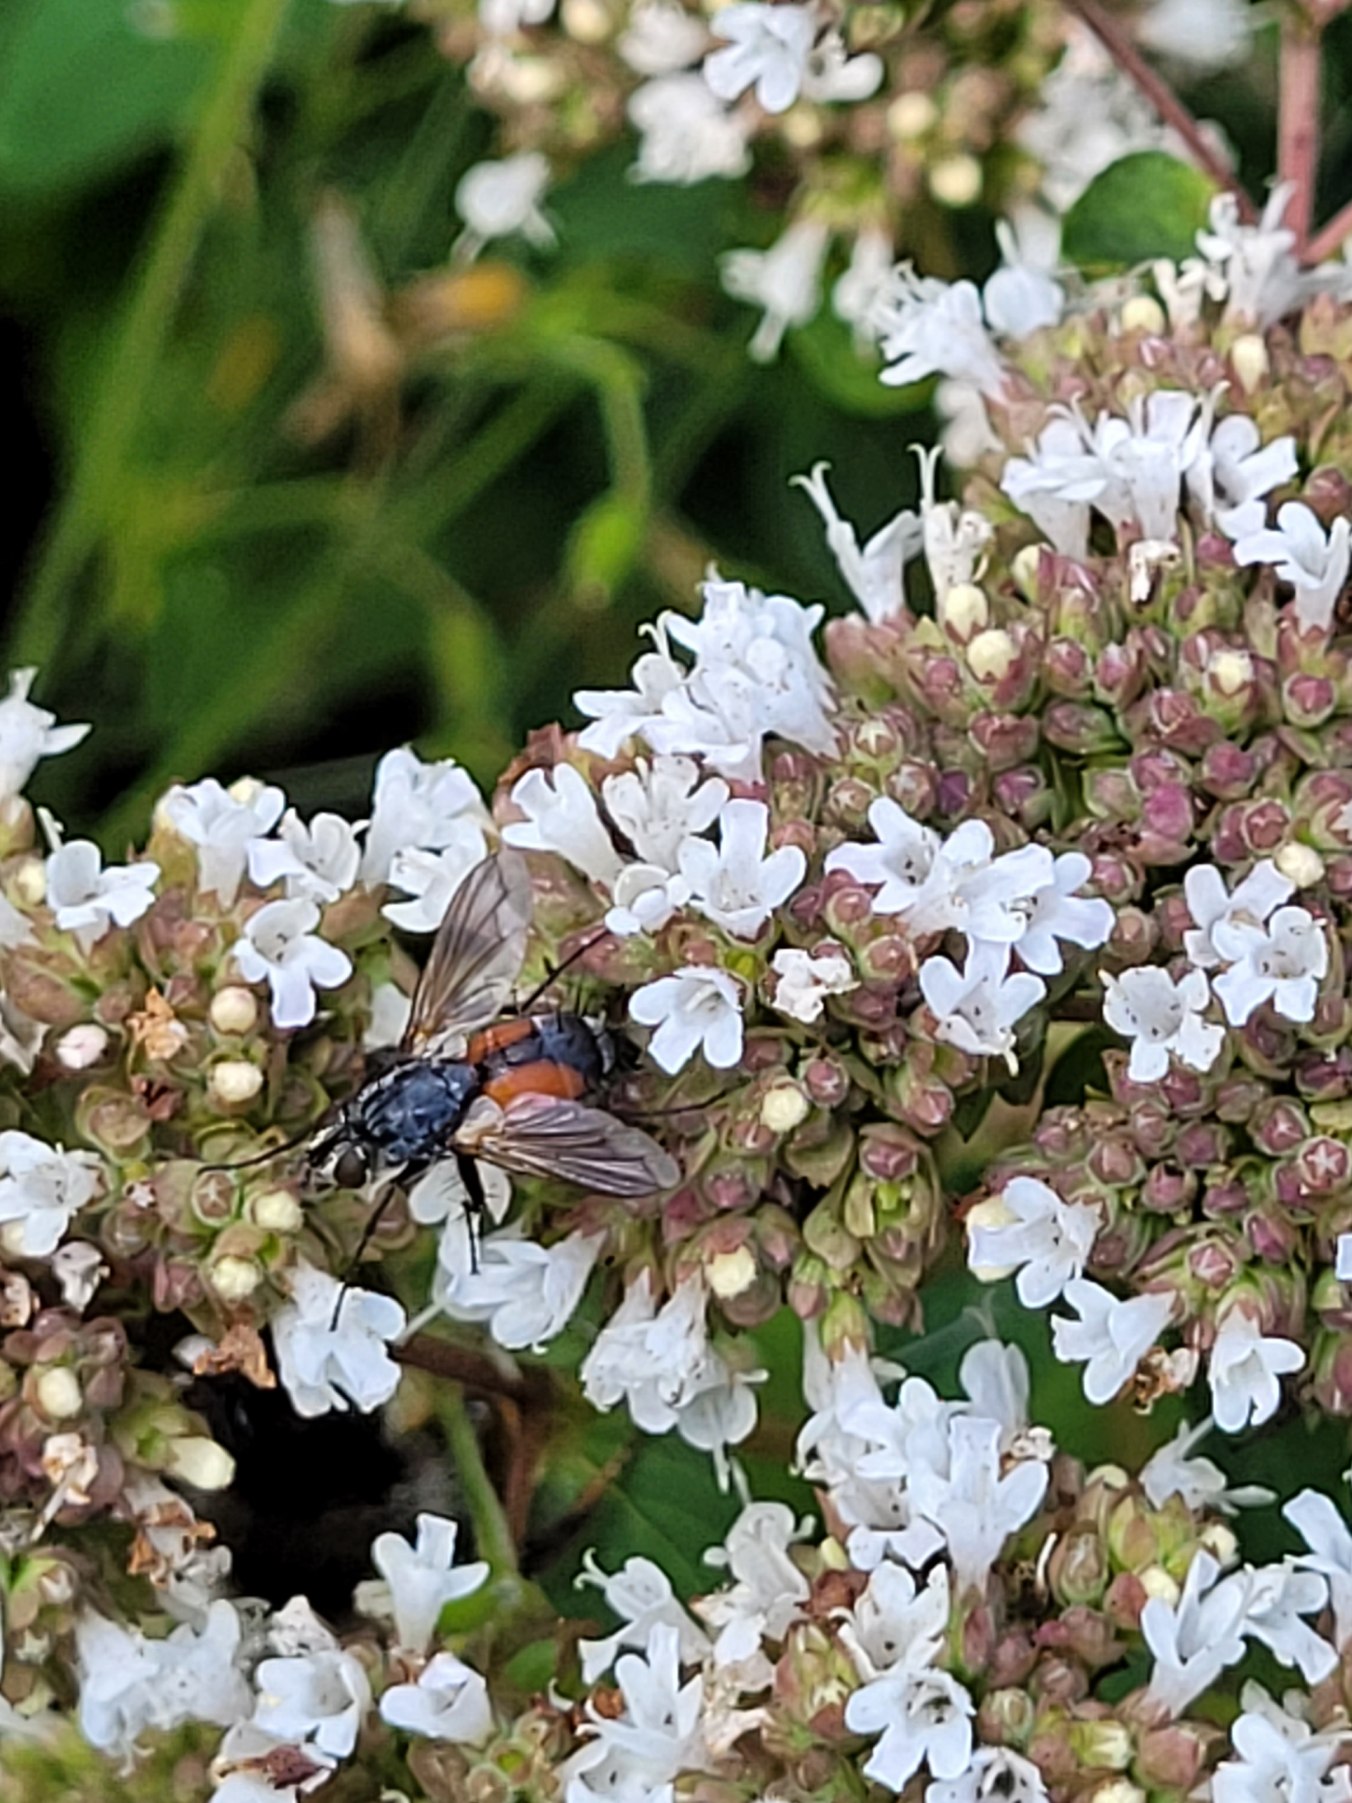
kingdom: Animalia
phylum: Arthropoda
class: Insecta
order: Diptera
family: Tachinidae
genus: Eriothrix
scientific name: Eriothrix rufomaculatus
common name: Rød snylteflue
